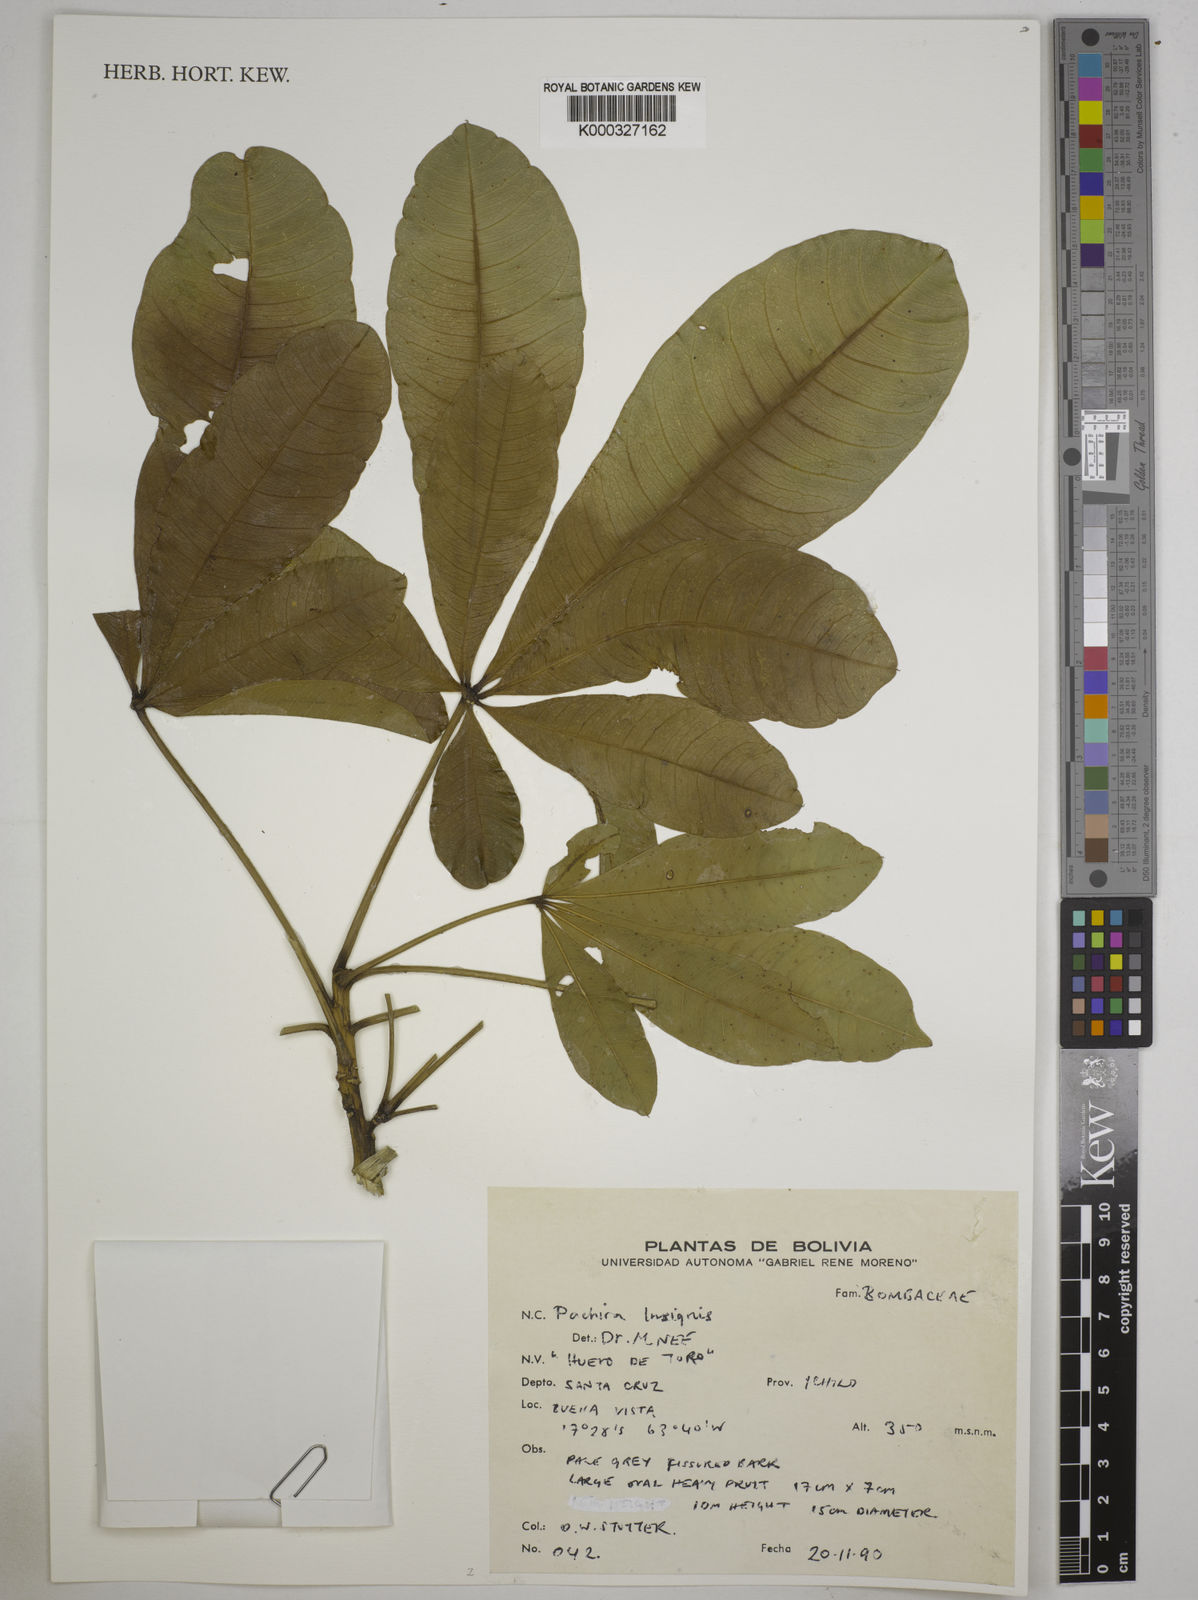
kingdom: Plantae
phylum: Tracheophyta
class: Magnoliopsida
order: Malvales
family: Malvaceae
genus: Pachira
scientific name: Pachira insignis
